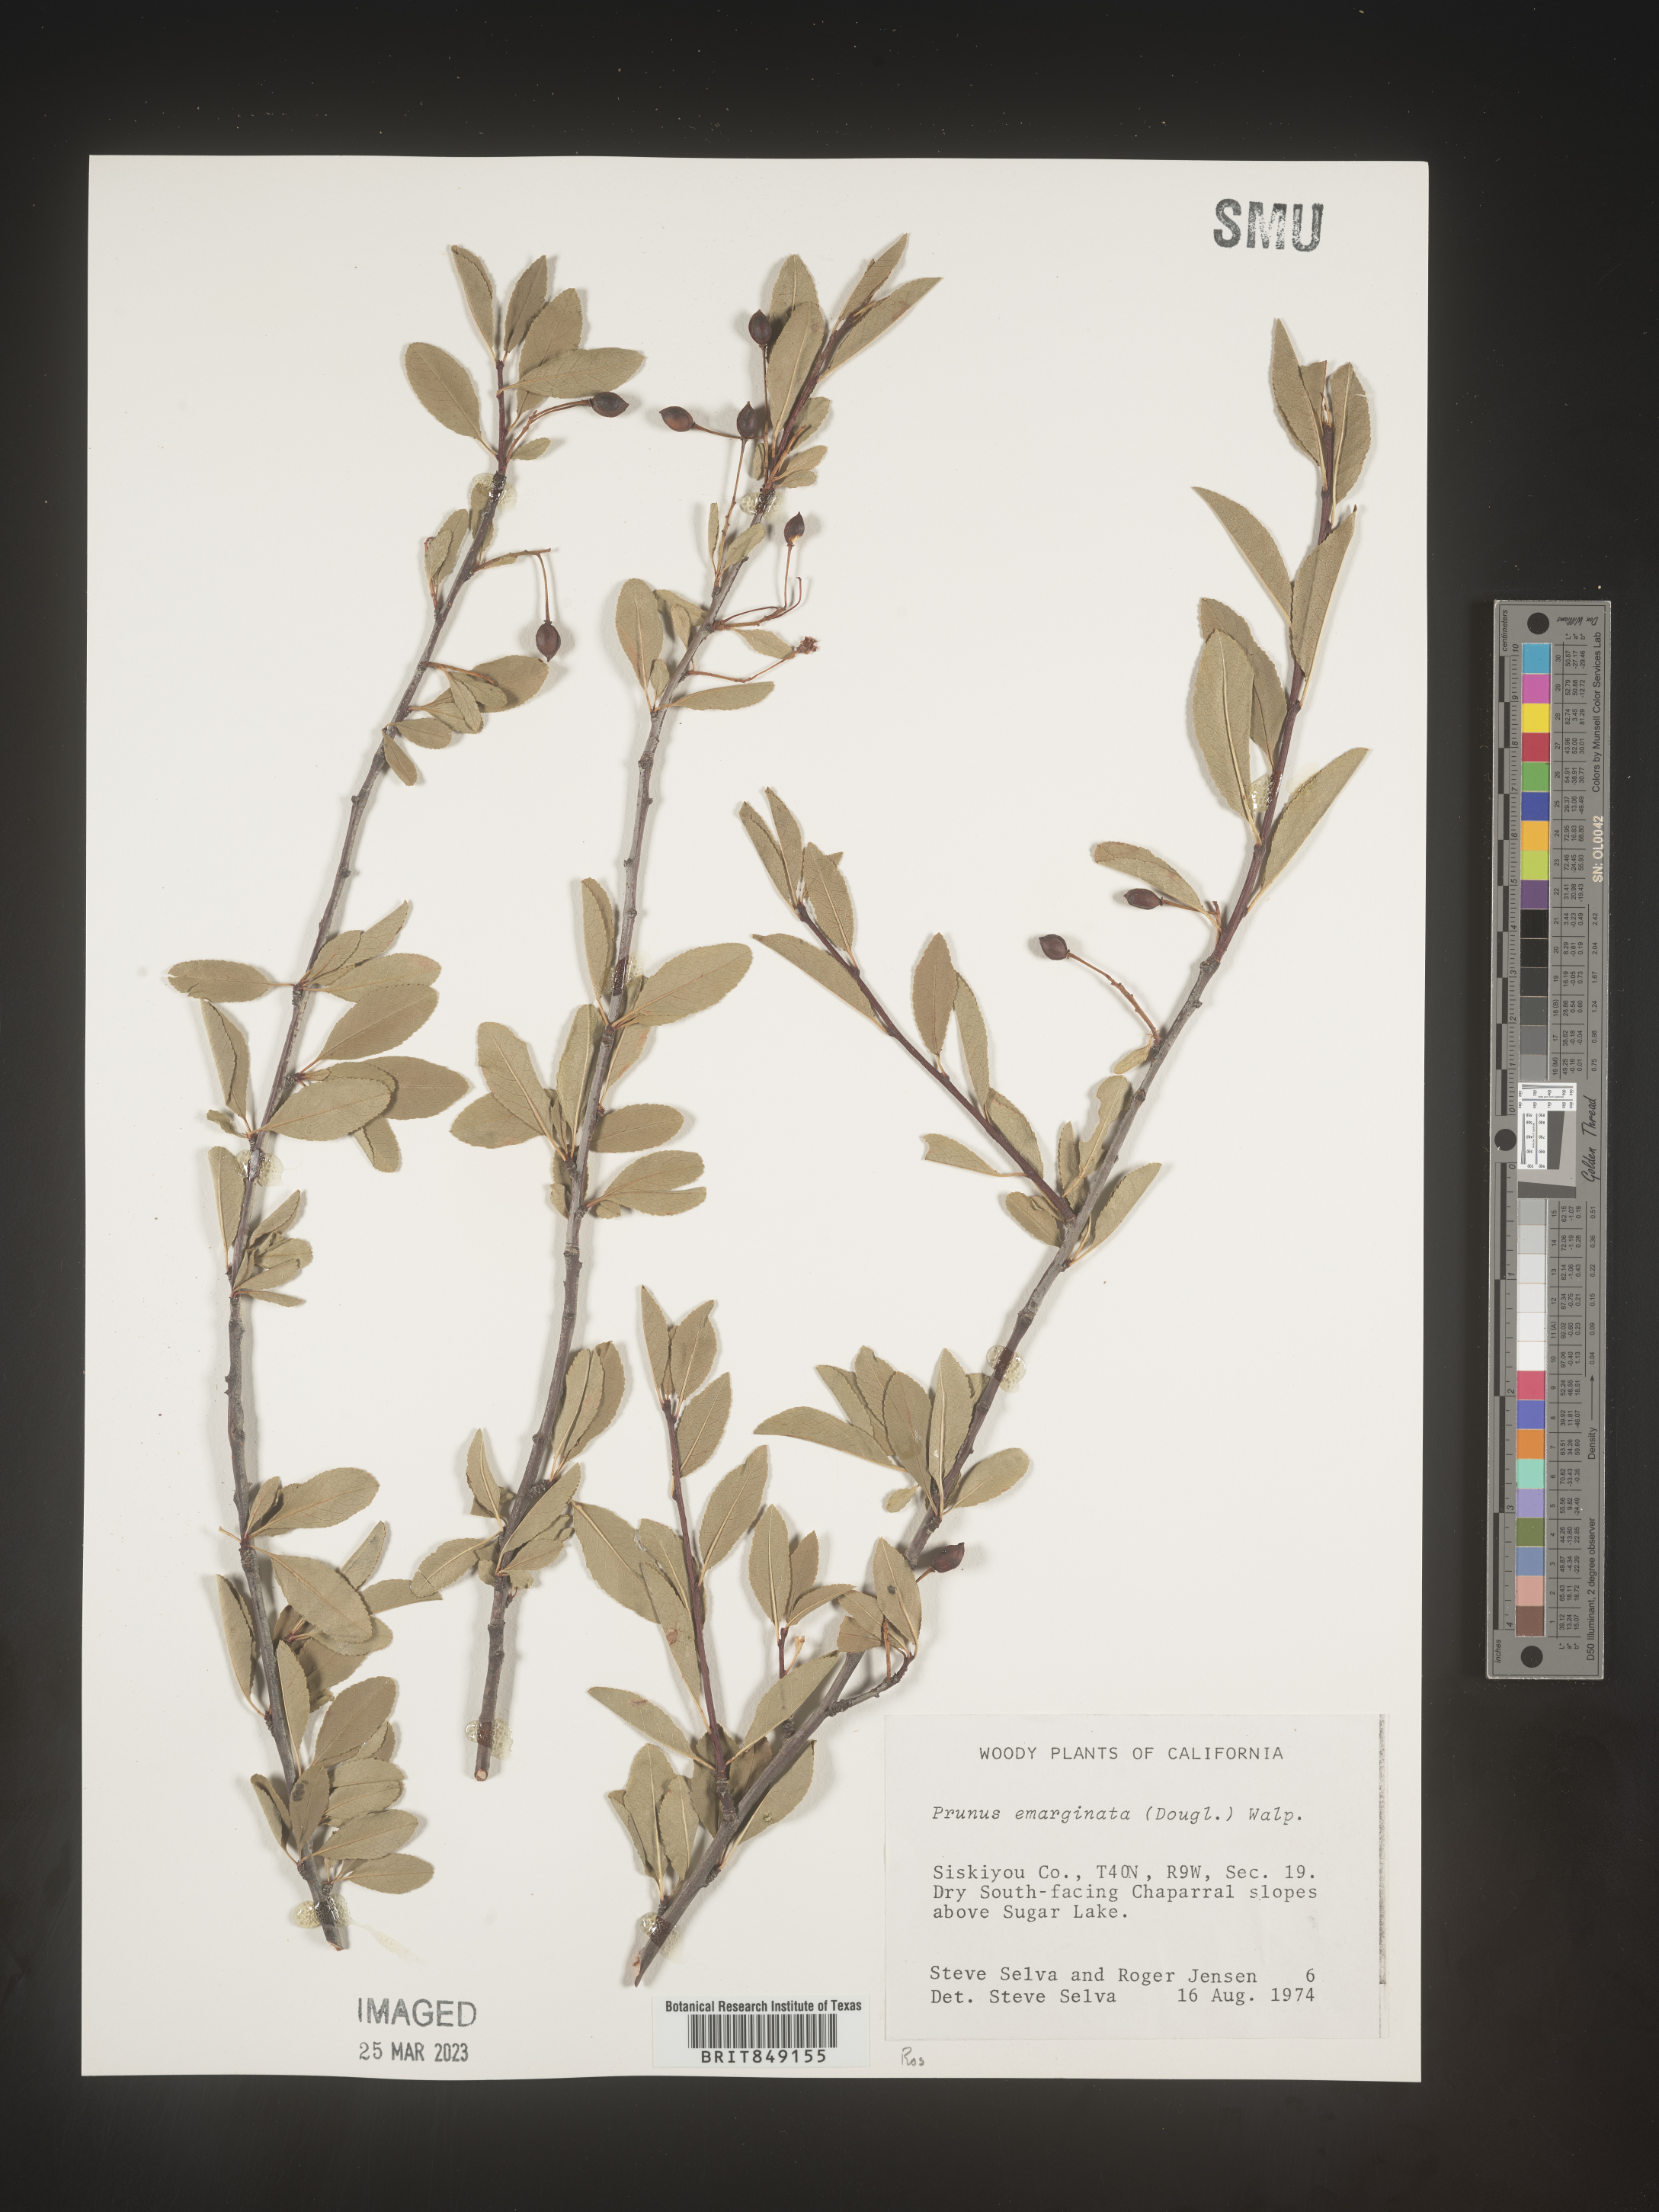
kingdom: Plantae
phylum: Tracheophyta
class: Magnoliopsida
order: Rosales
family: Rosaceae
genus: Prunus
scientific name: Prunus emarginata
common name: Bitter cherry
